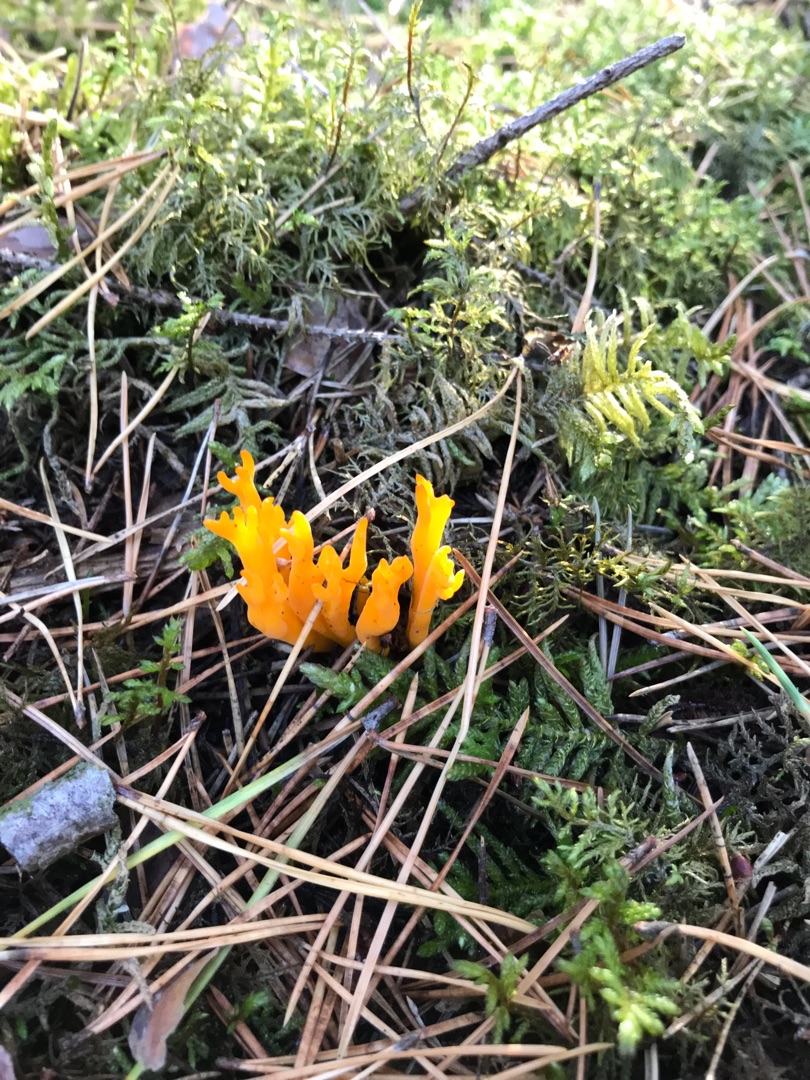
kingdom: Fungi
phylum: Basidiomycota
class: Dacrymycetes
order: Dacrymycetales
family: Dacrymycetaceae
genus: Calocera
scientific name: Calocera viscosa
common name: Almindelig guldgaffel
